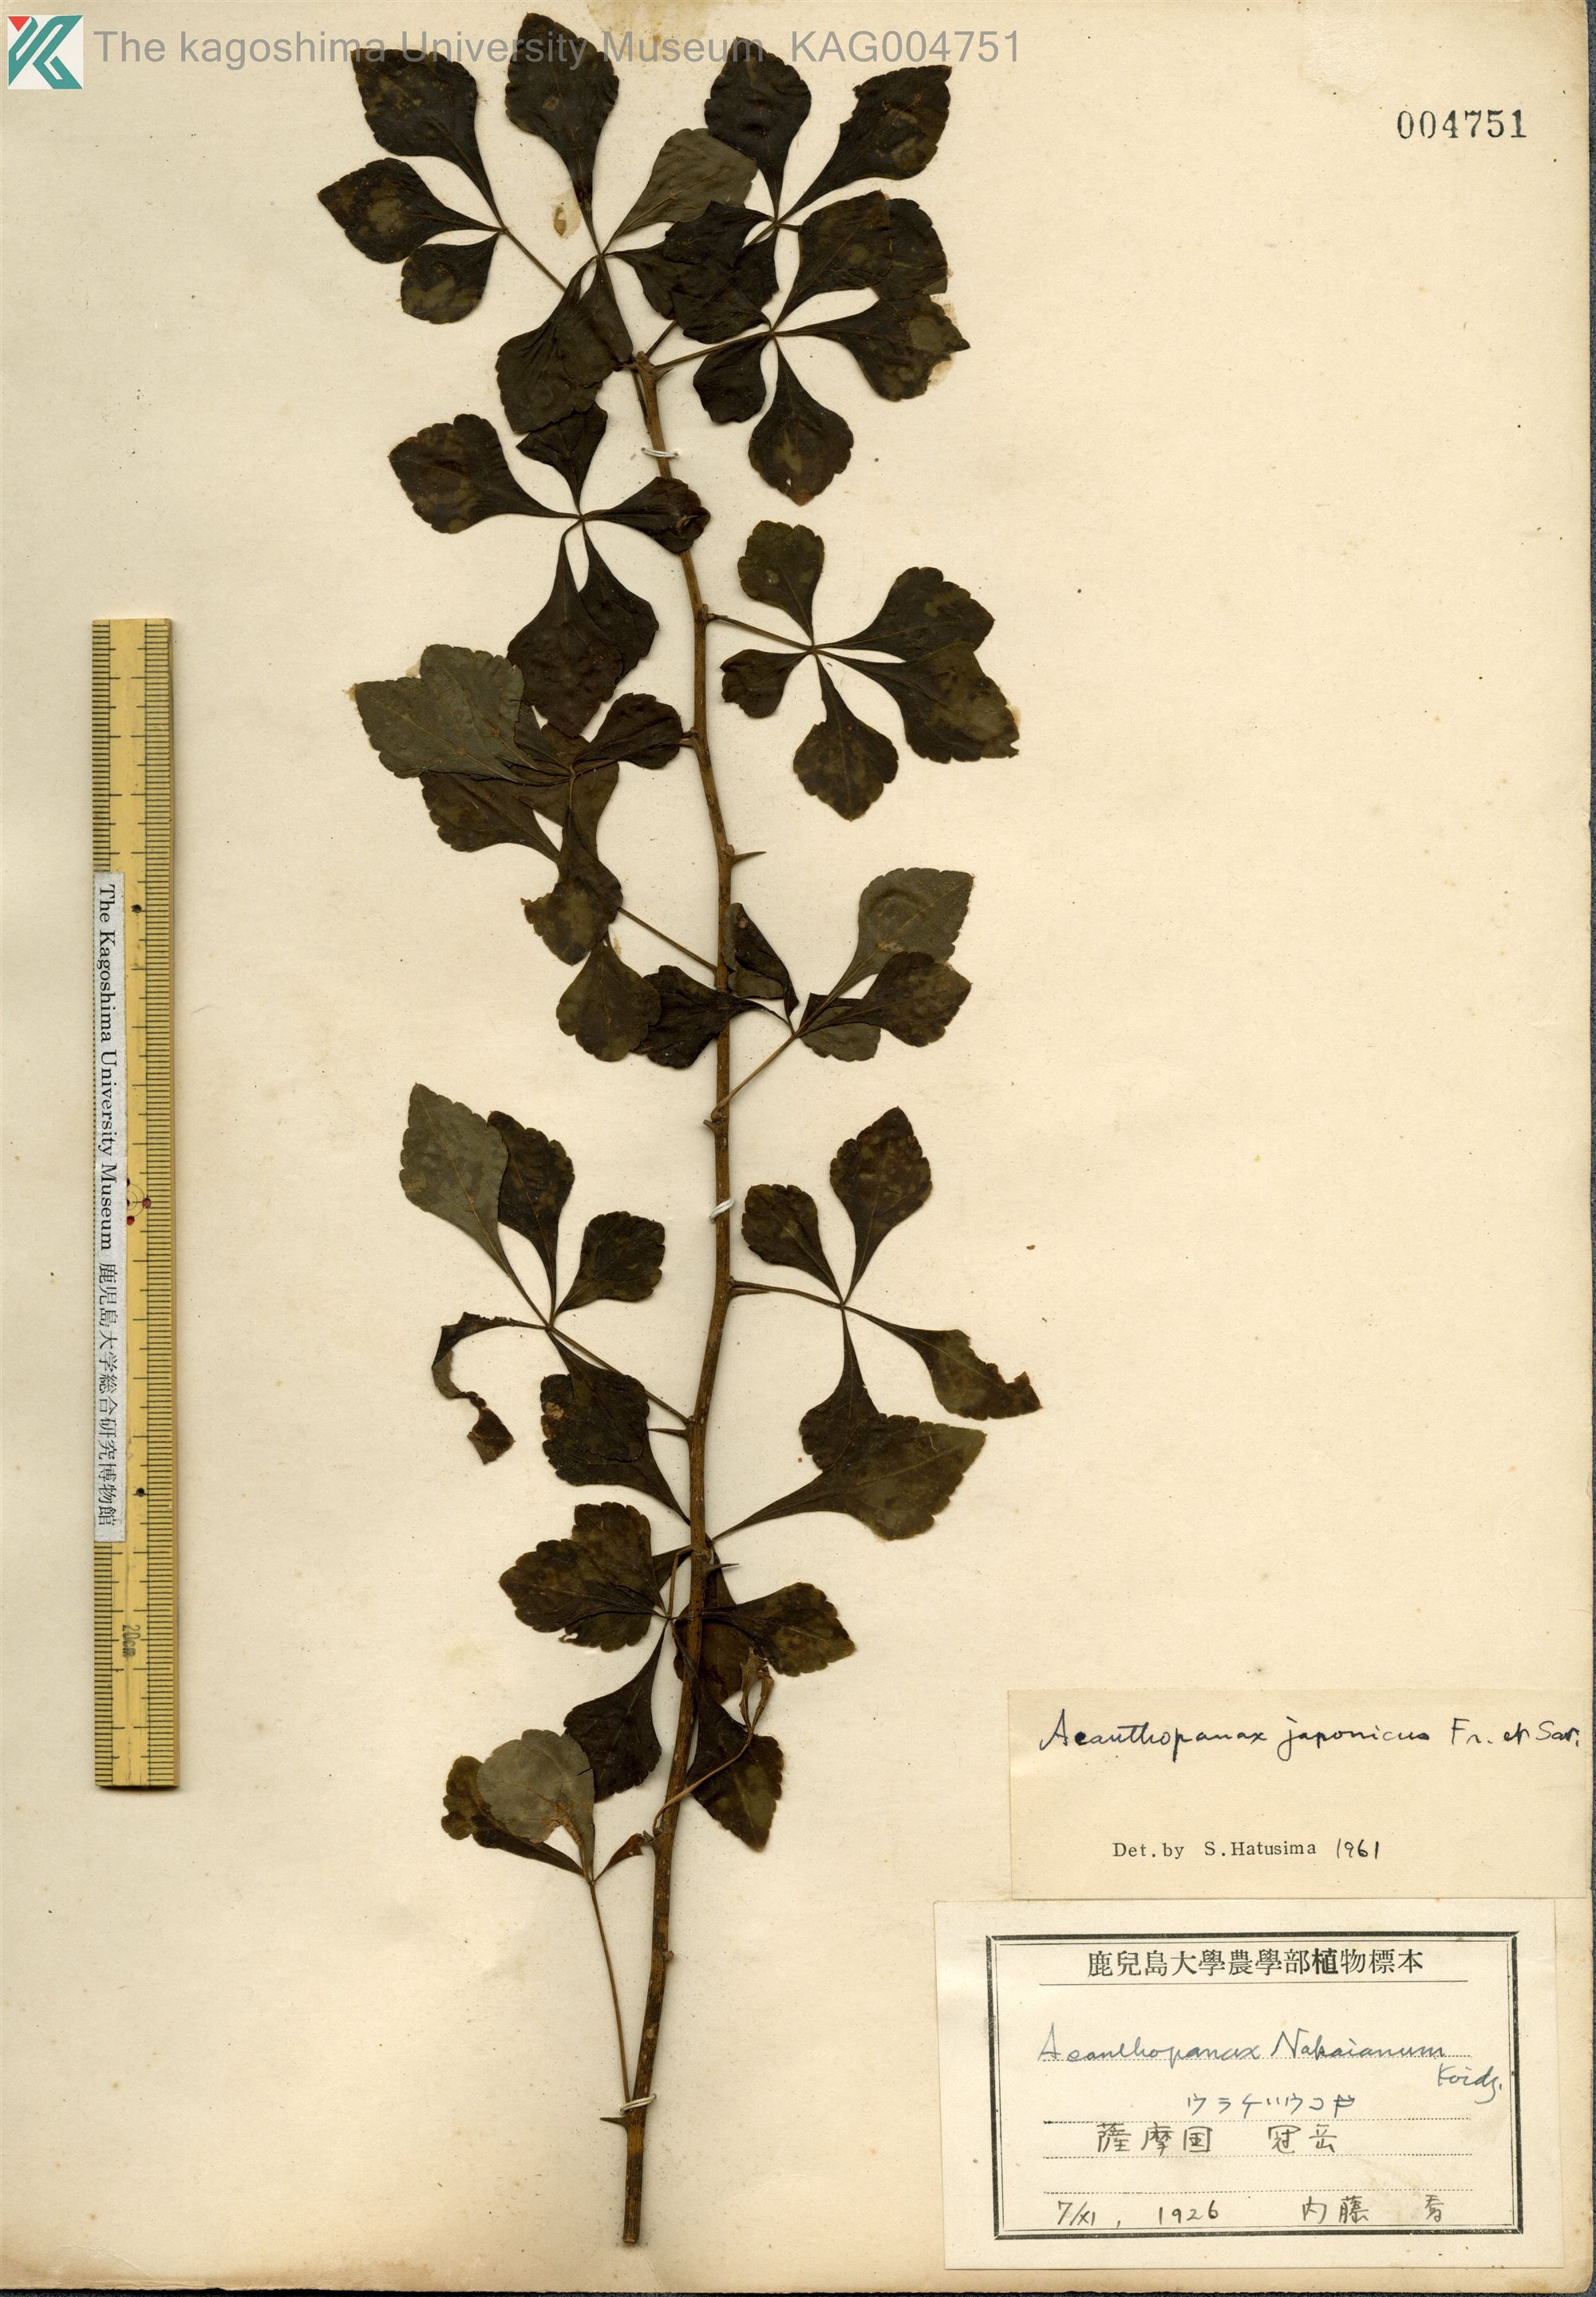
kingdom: Plantae
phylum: Tracheophyta
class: Magnoliopsida
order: Apiales
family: Araliaceae
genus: Eleutherococcus
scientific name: Eleutherococcus japonicus
